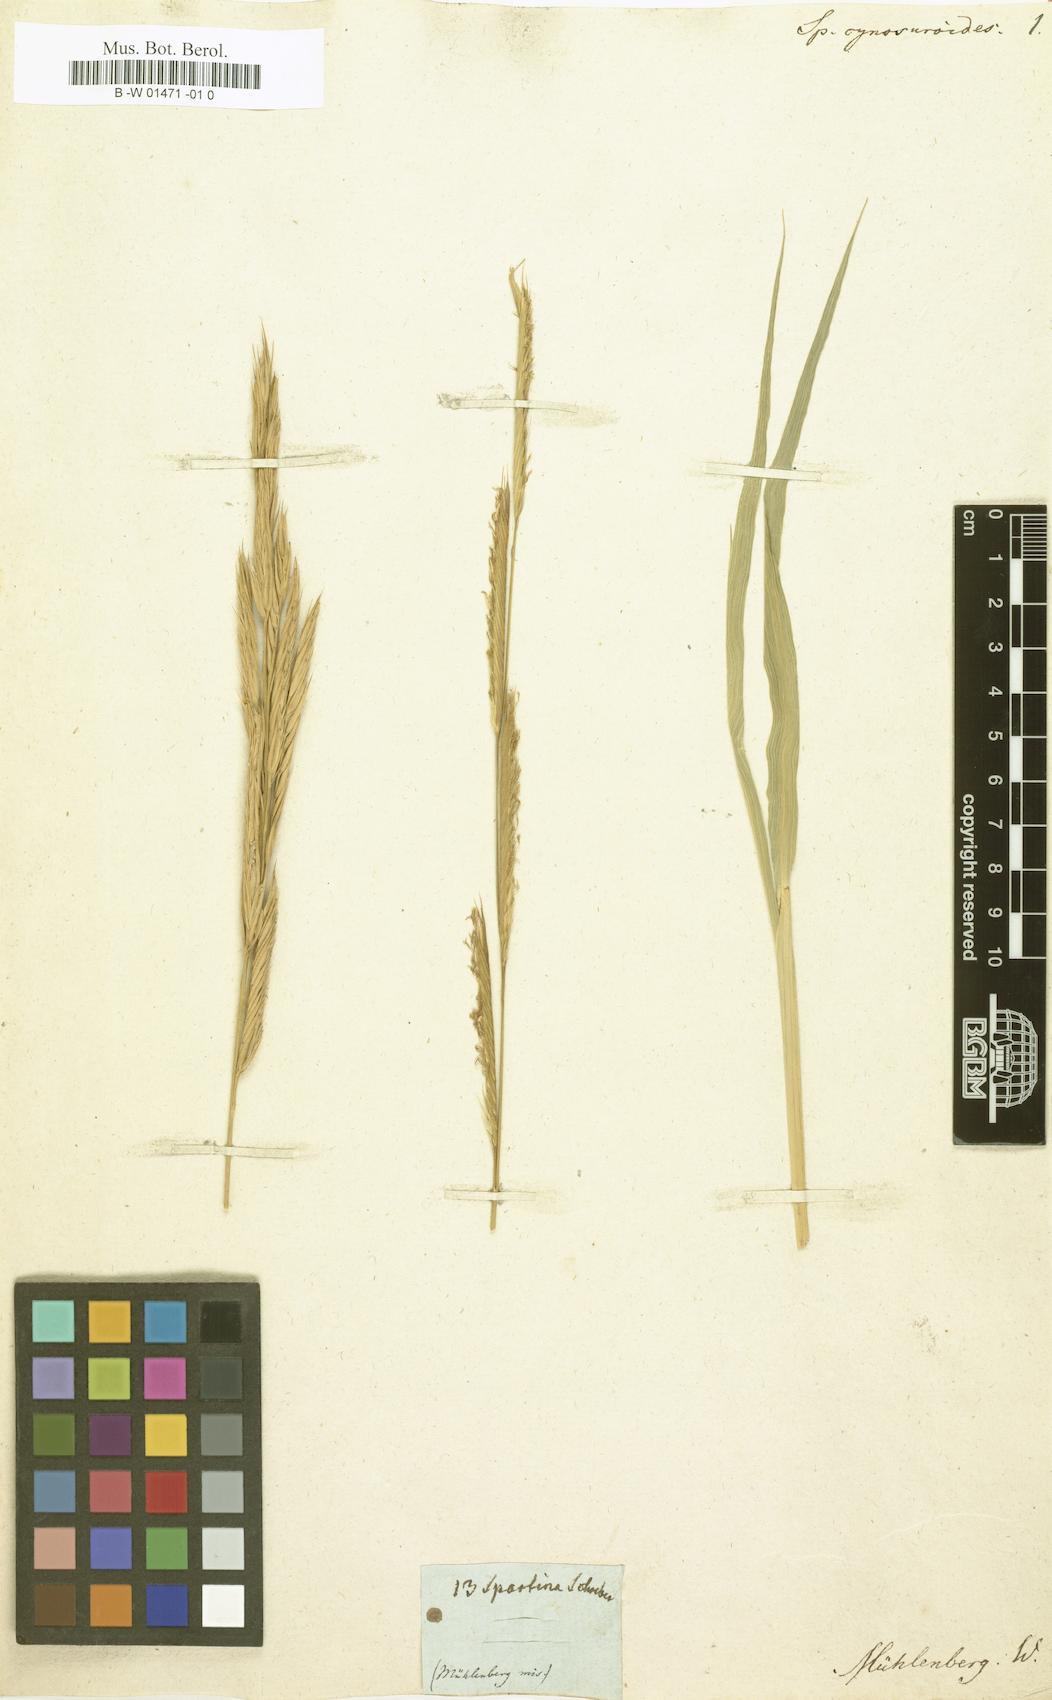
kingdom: Plantae
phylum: Tracheophyta
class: Liliopsida
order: Poales
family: Poaceae
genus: Sporobolus
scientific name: Sporobolus cynosuroides
